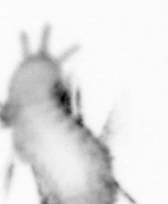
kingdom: Animalia
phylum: Annelida
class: Polychaeta
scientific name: Polychaeta
